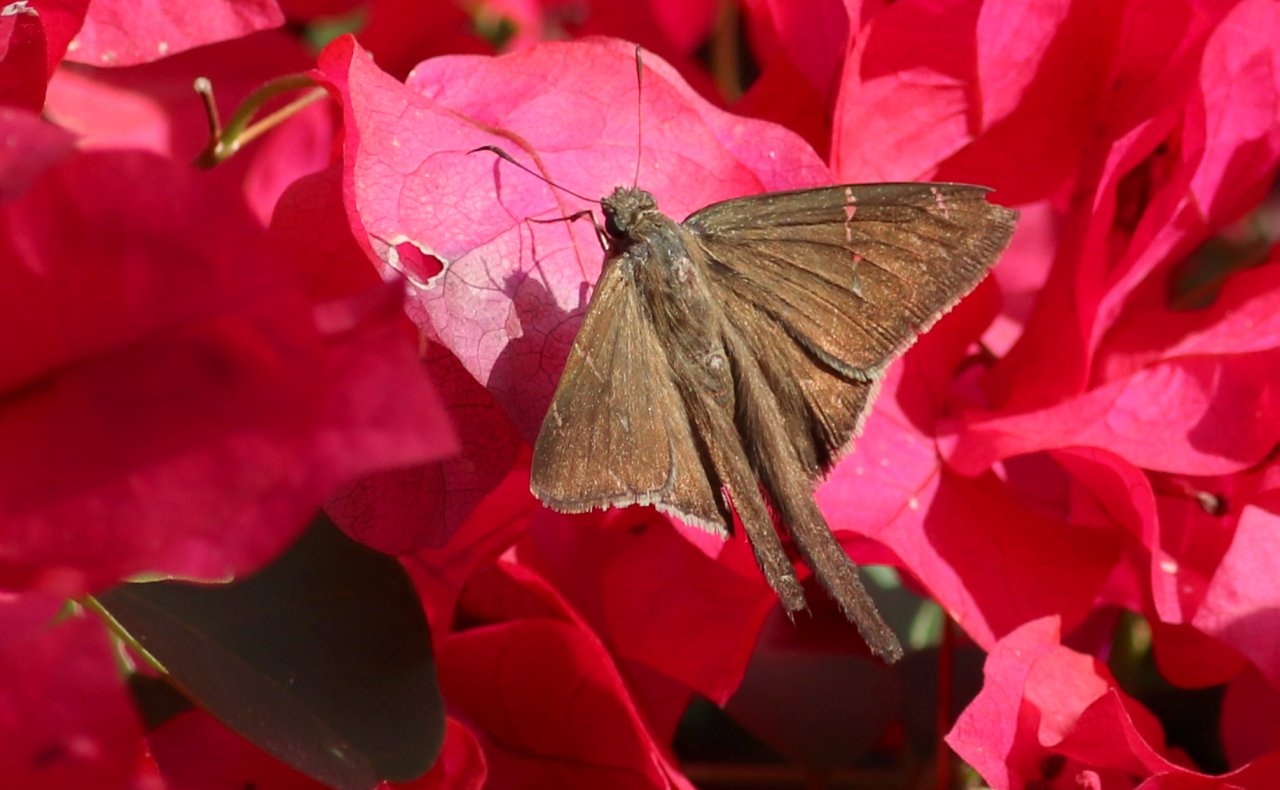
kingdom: Animalia
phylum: Arthropoda
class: Insecta
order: Lepidoptera
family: Hesperiidae
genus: Urbanus
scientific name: Urbanus procne
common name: Brown Longtail
